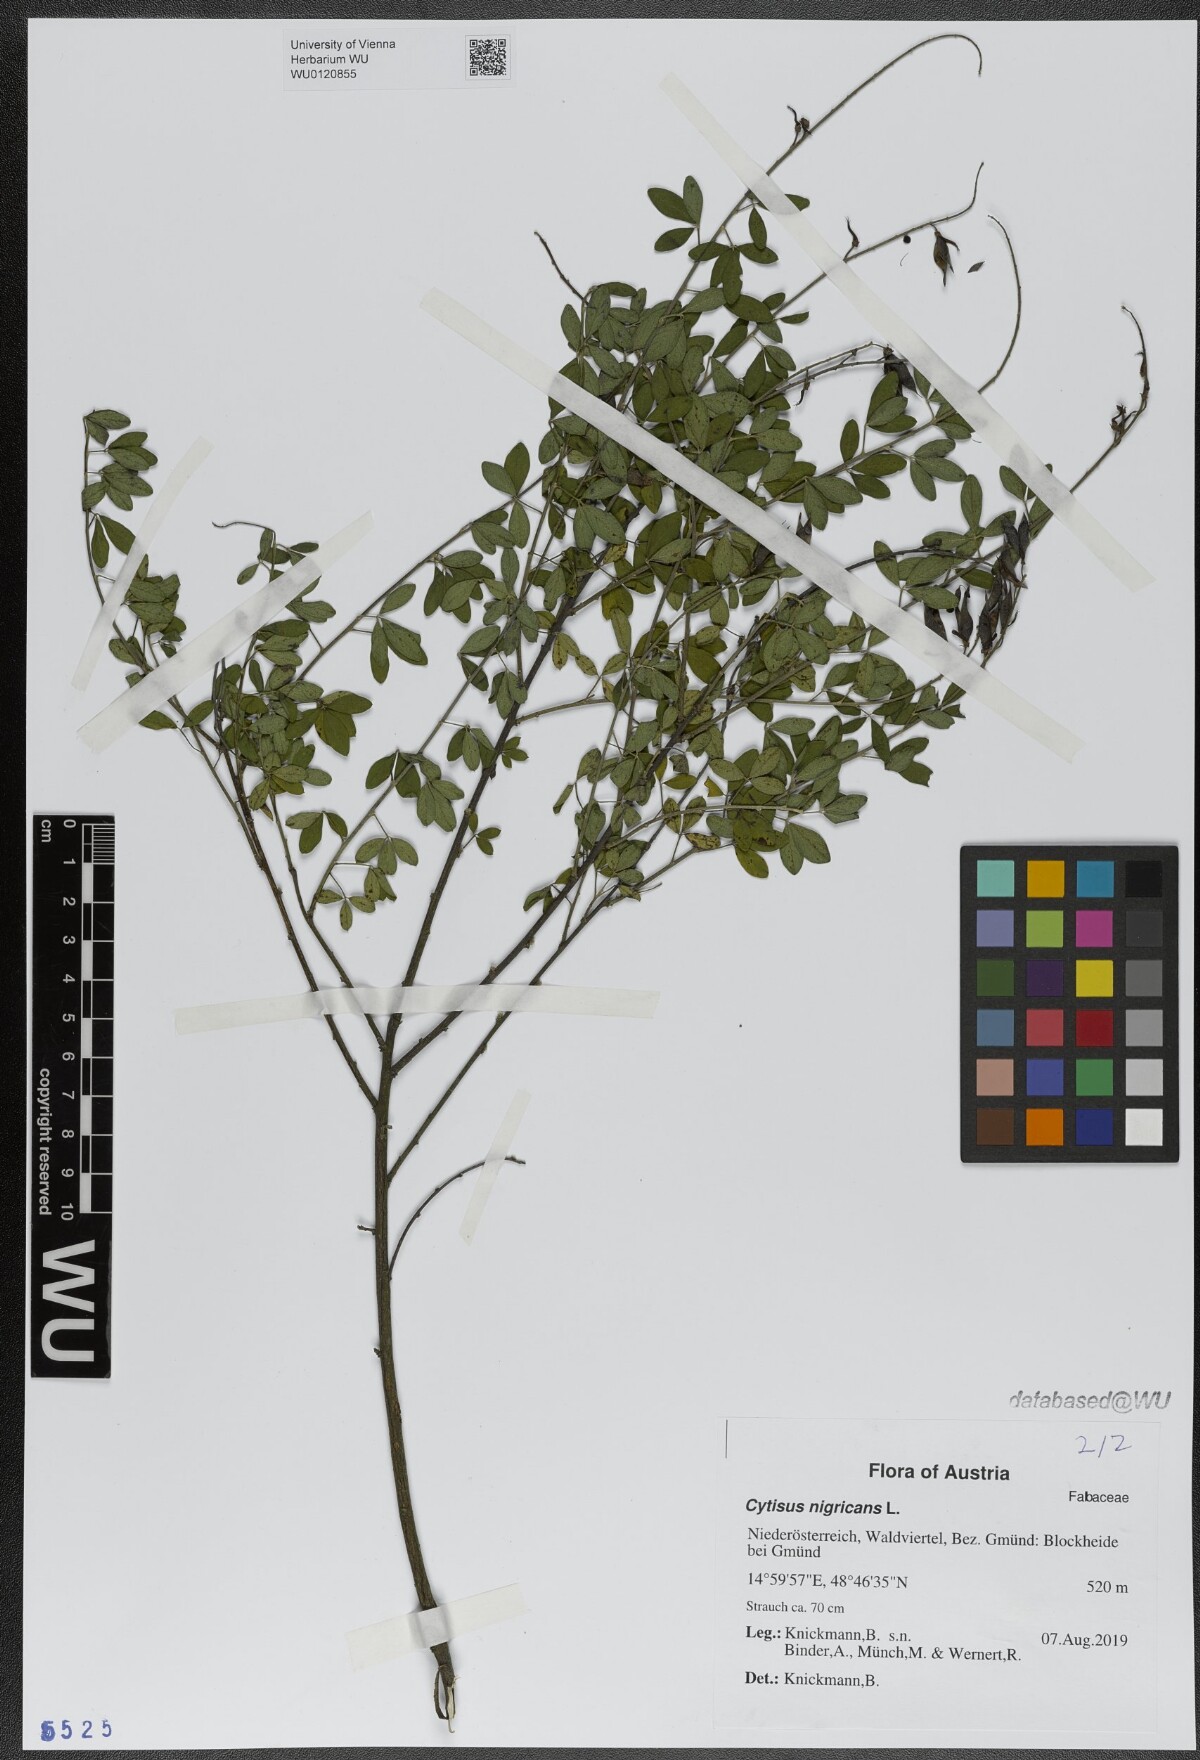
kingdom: Plantae
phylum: Tracheophyta
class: Magnoliopsida
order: Fabales
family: Fabaceae
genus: Cytisus
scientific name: Cytisus nigricans
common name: Black broom
